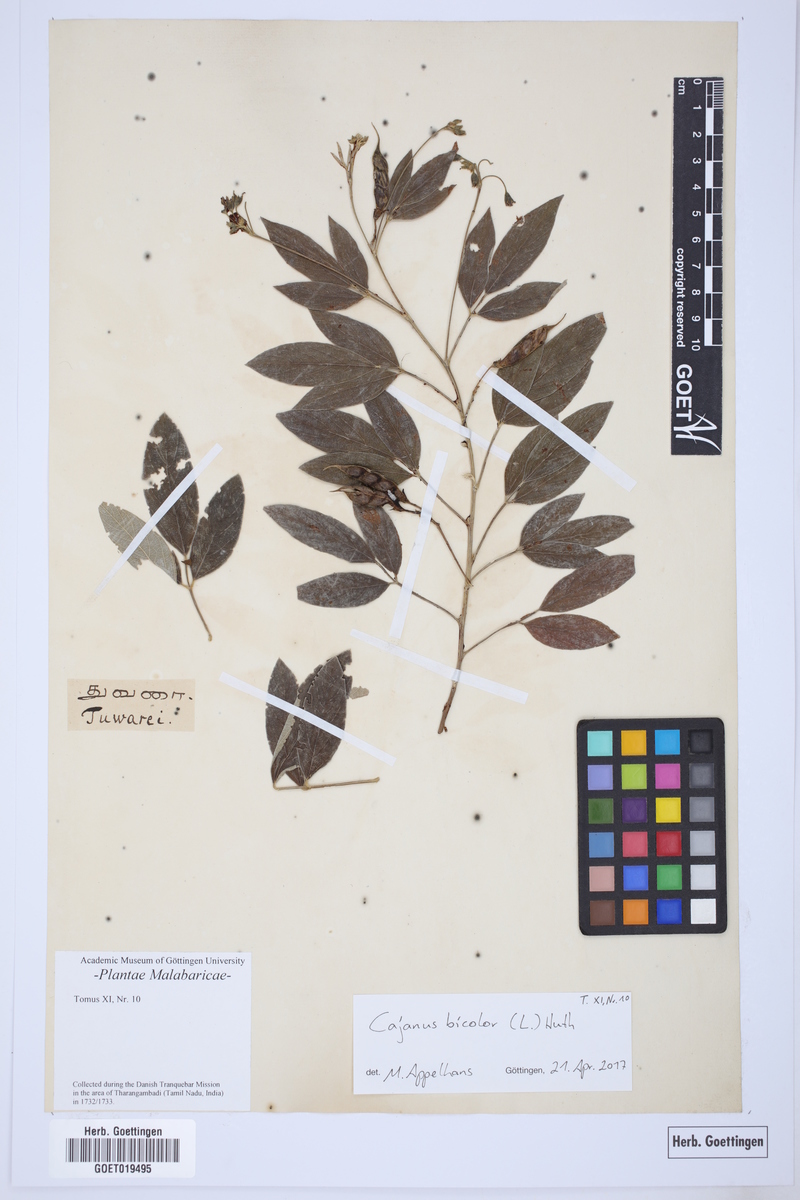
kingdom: Plantae
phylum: Tracheophyta
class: Magnoliopsida
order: Fabales
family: Fabaceae
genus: Cajanus
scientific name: Cajanus cajan
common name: Pigeonpea
